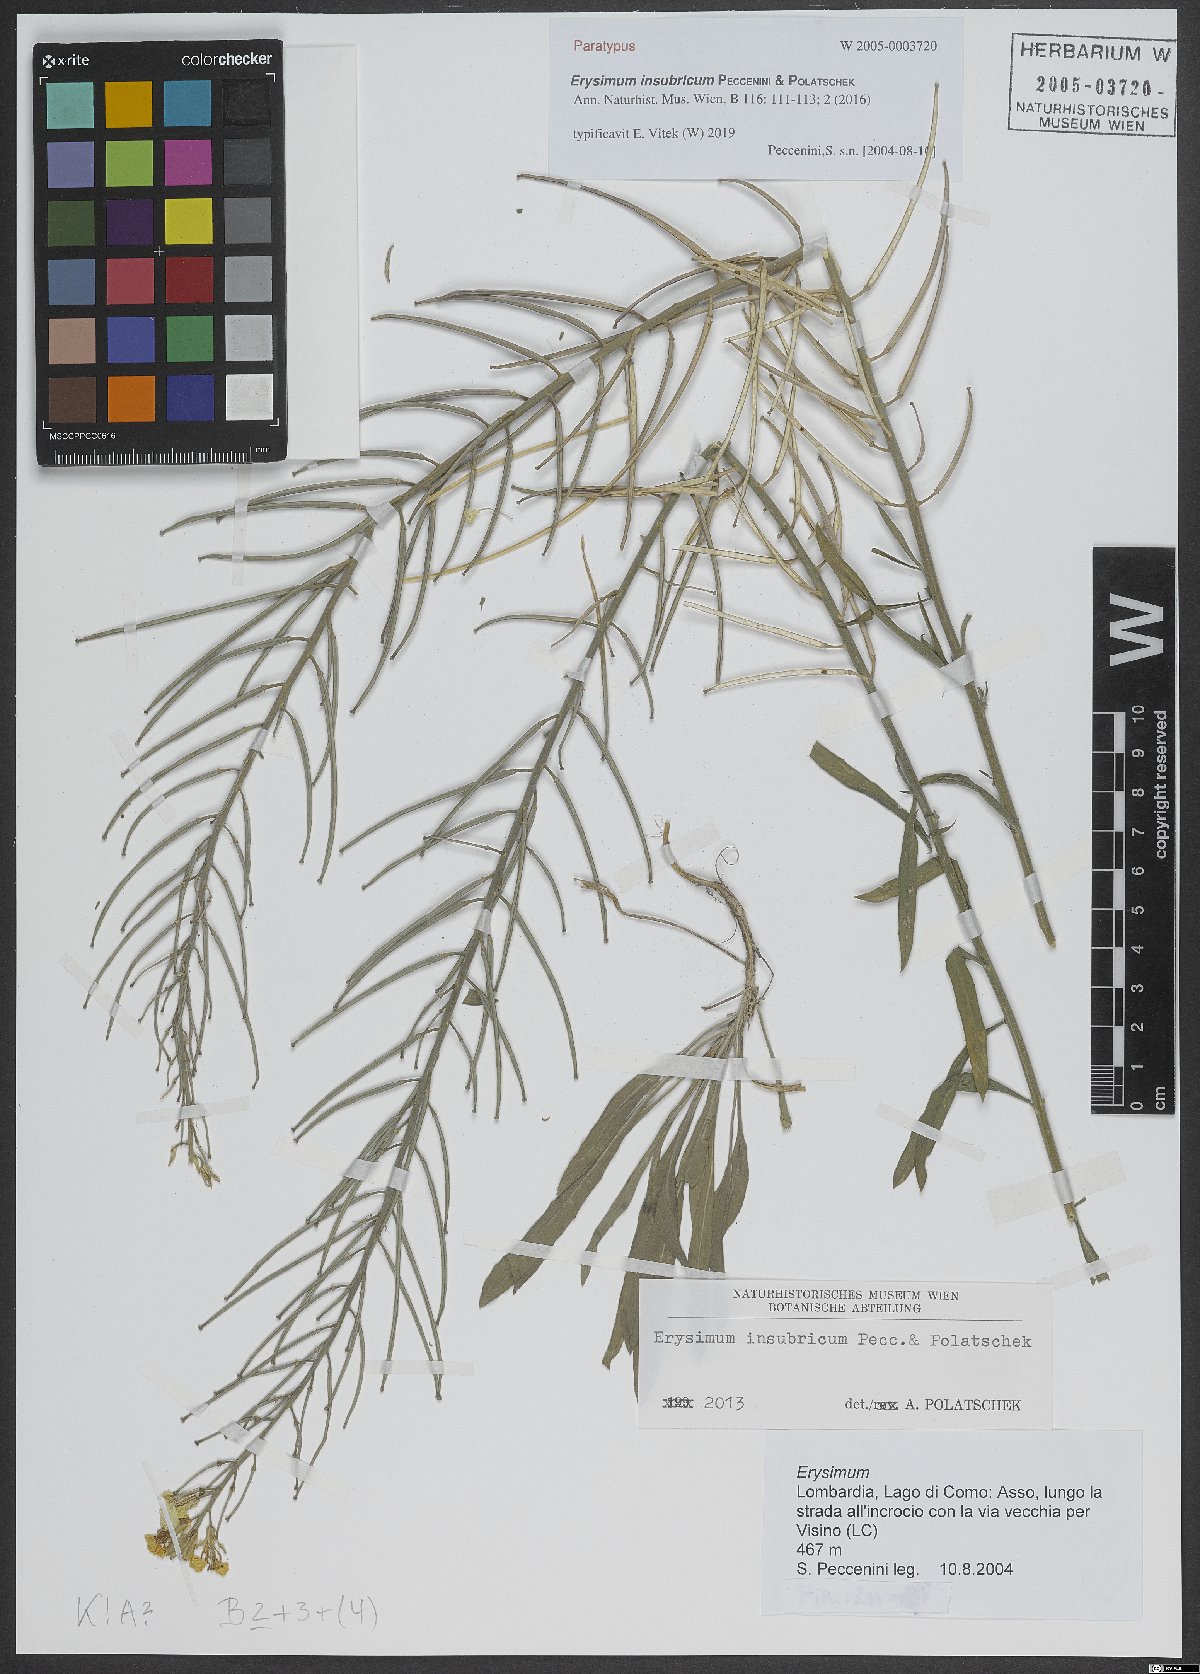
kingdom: Plantae
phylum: Tracheophyta
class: Magnoliopsida
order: Brassicales
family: Brassicaceae
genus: Erysimum
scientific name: Erysimum insubricum
